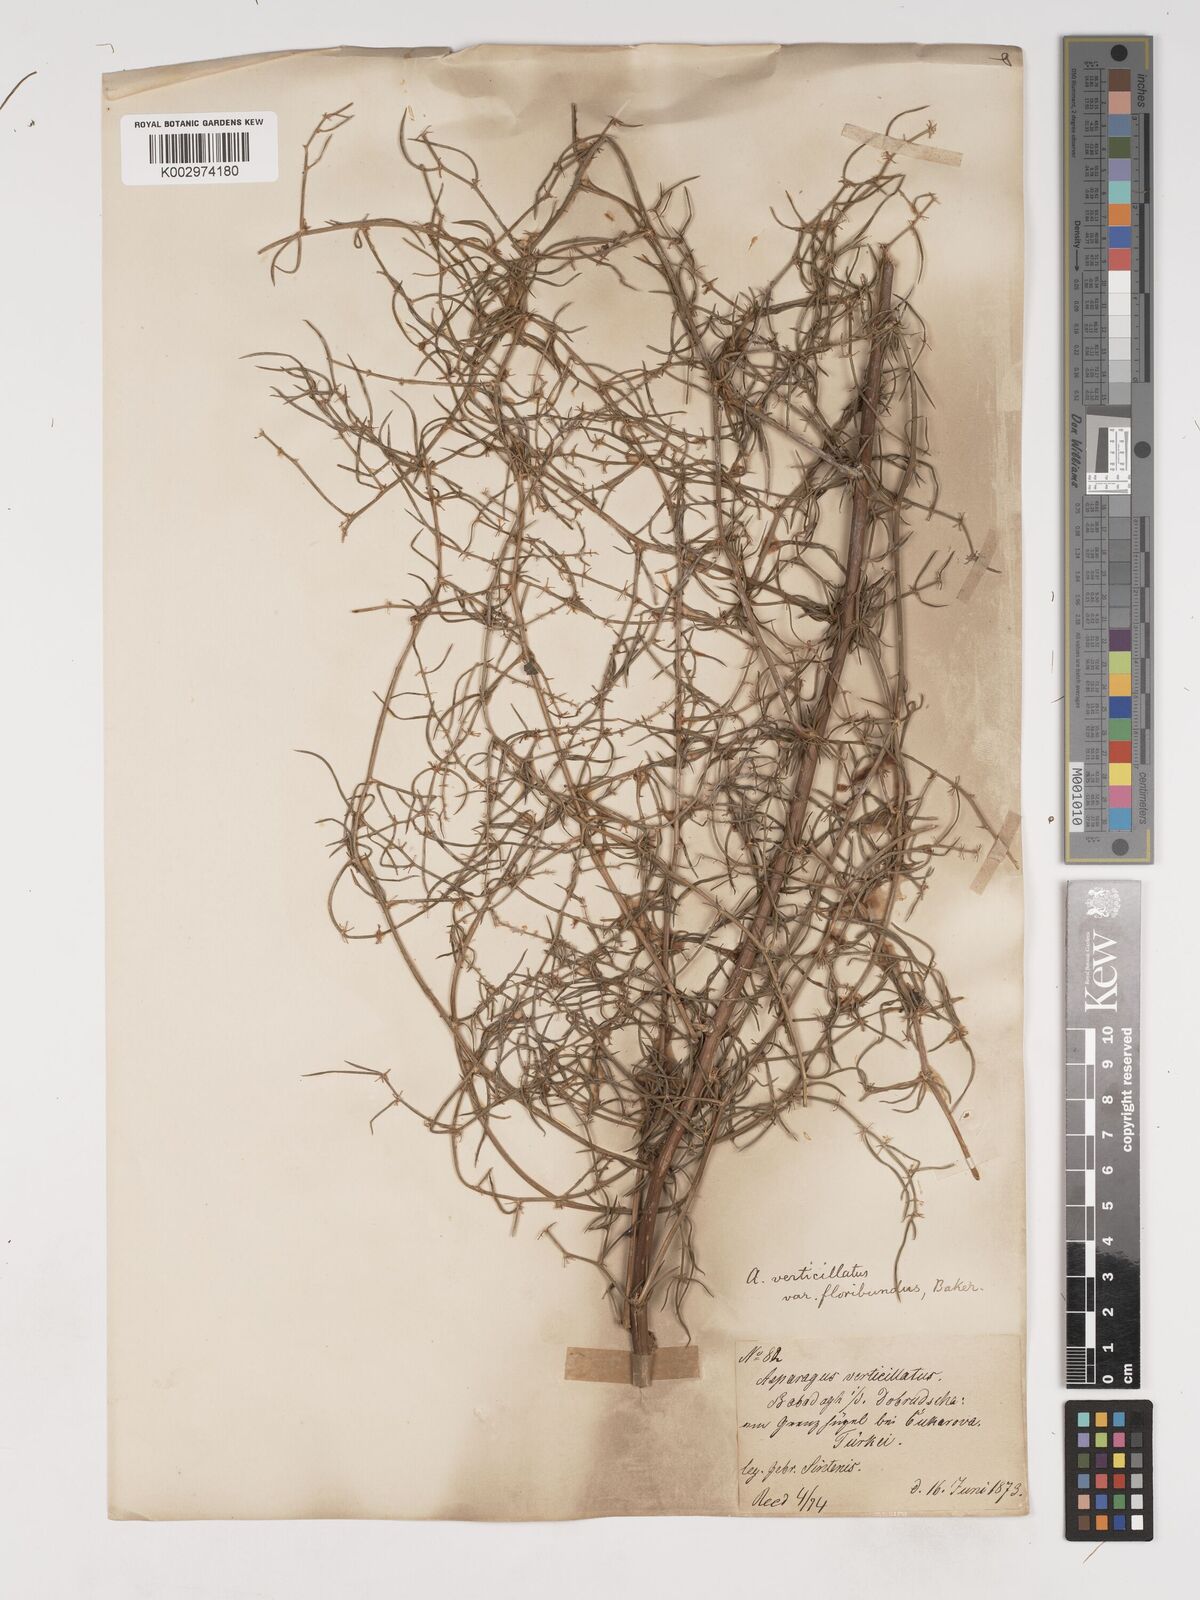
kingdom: Plantae
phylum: Tracheophyta
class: Liliopsida
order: Asparagales
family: Asparagaceae
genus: Asparagus
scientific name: Asparagus
